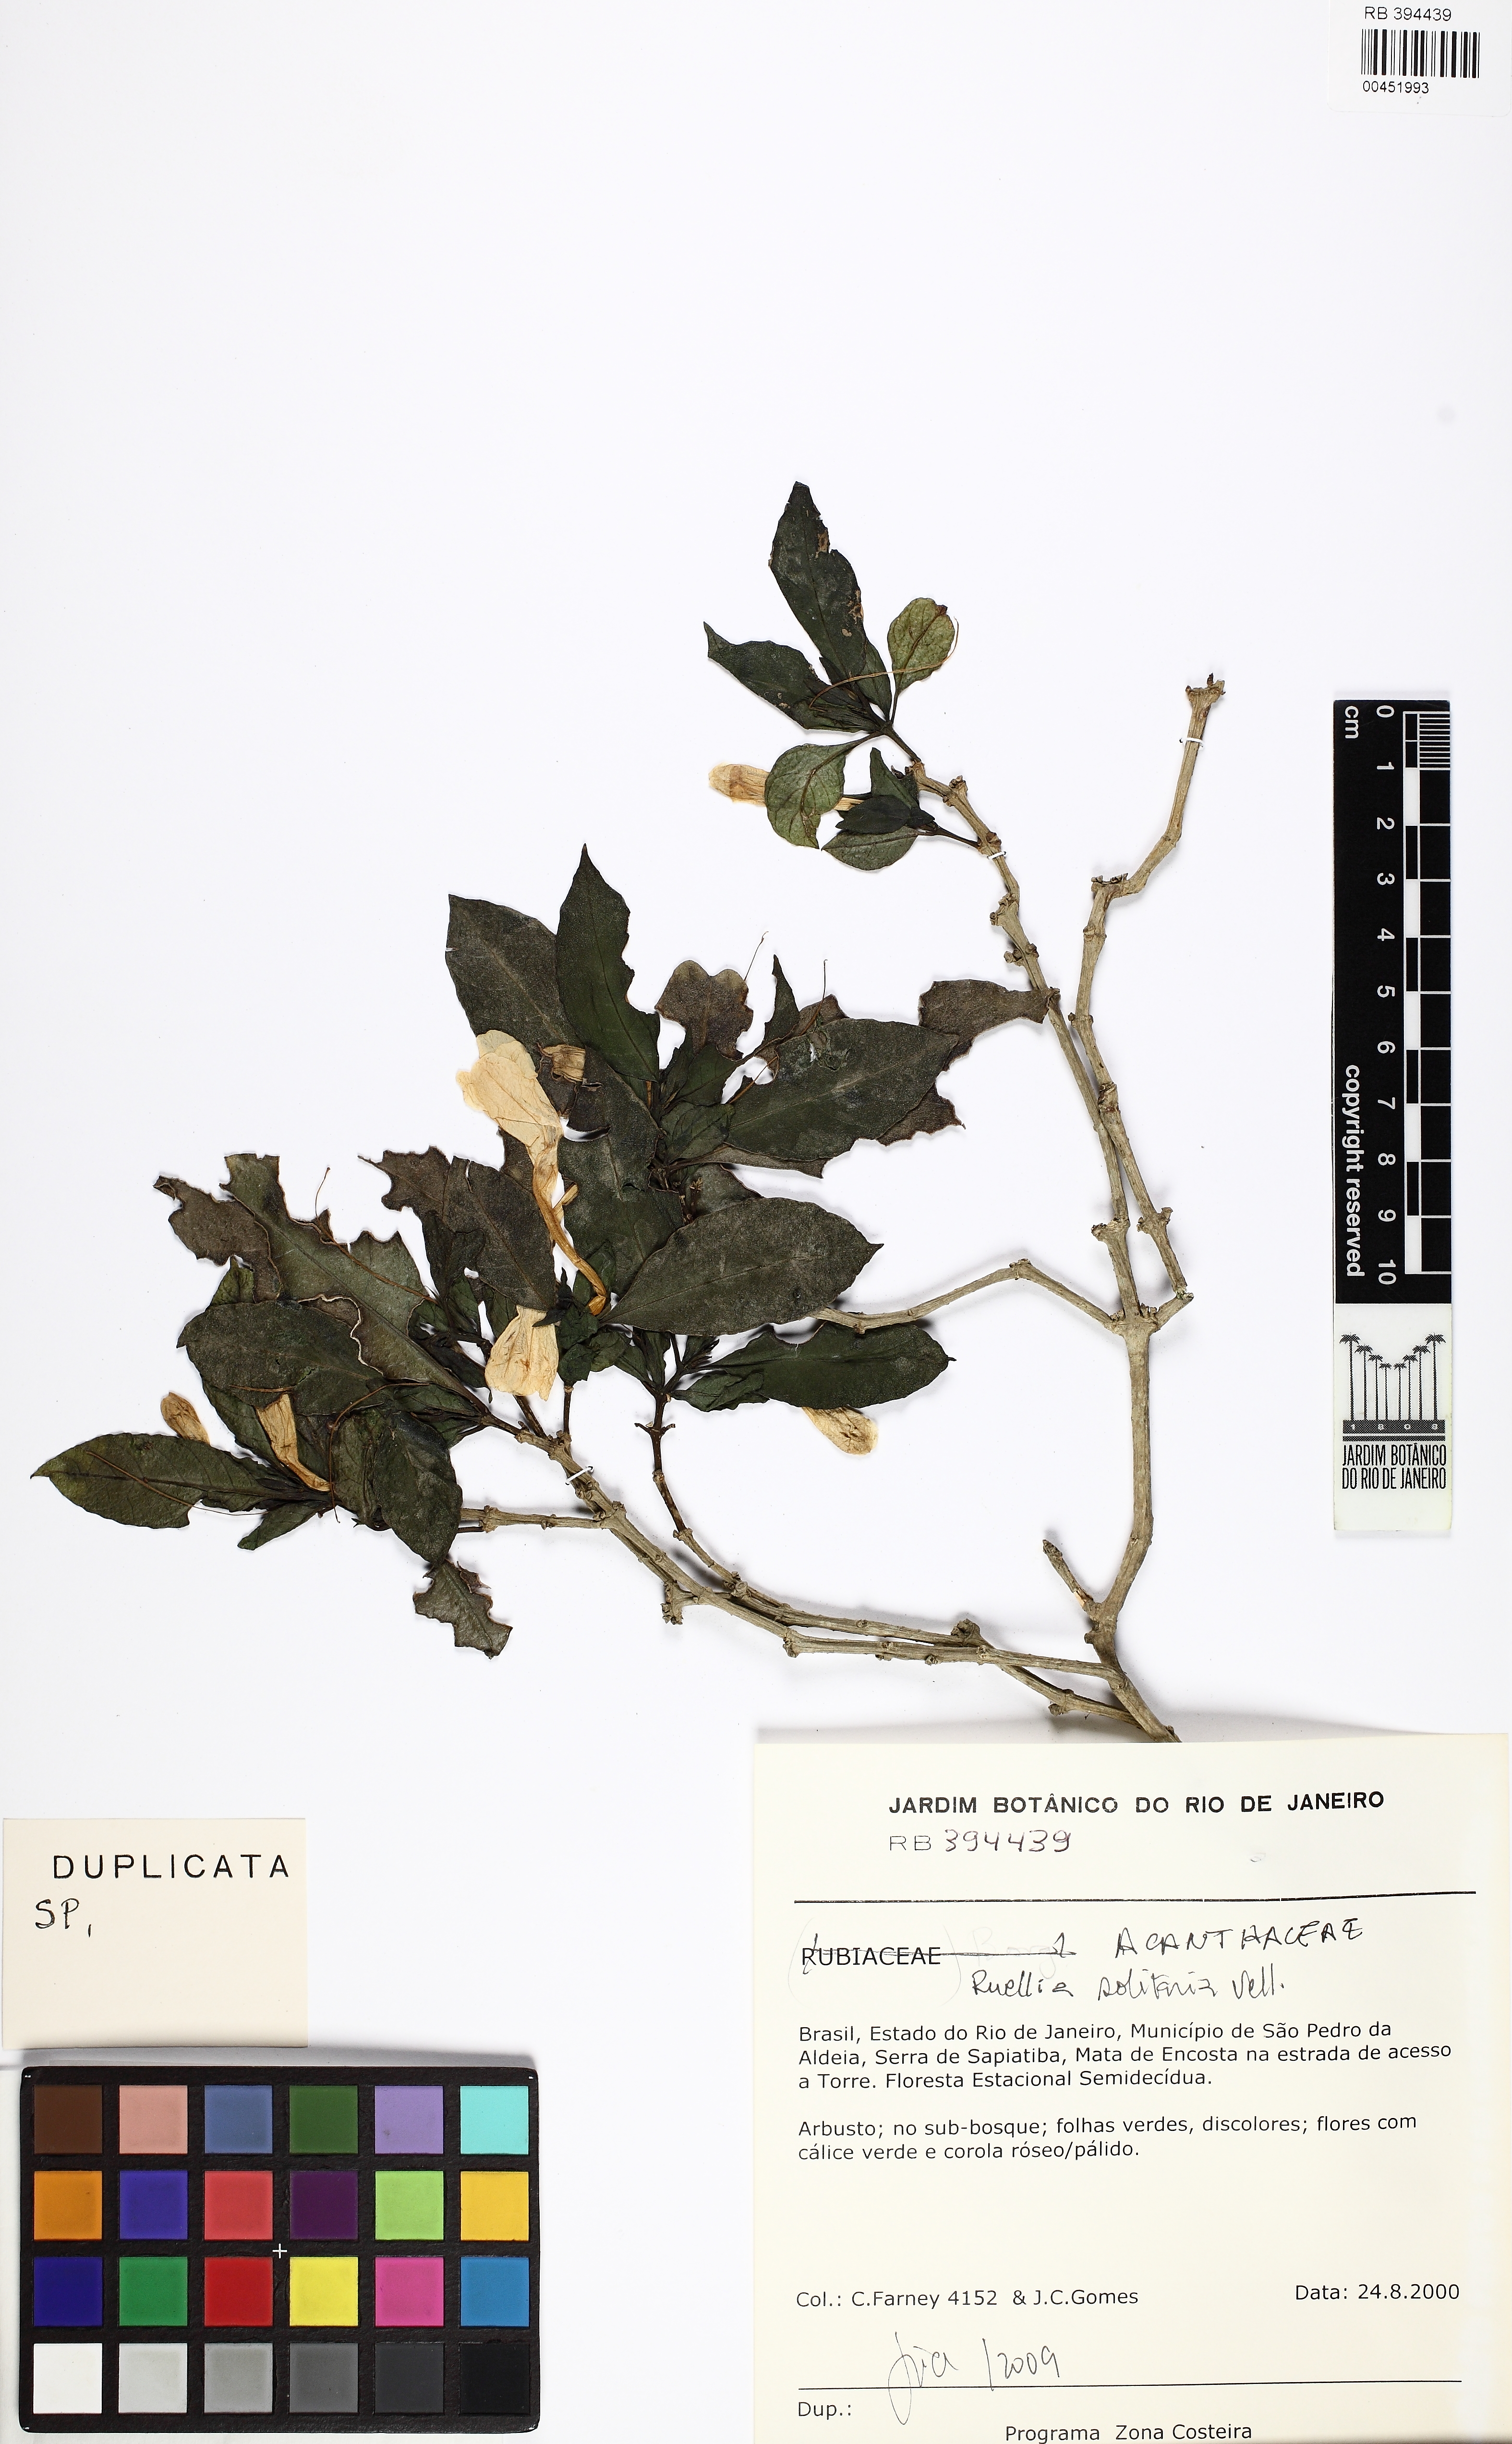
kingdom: Plantae
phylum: Tracheophyta
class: Magnoliopsida
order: Lamiales
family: Acanthaceae
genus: Ruellia
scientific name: Ruellia solitaria
